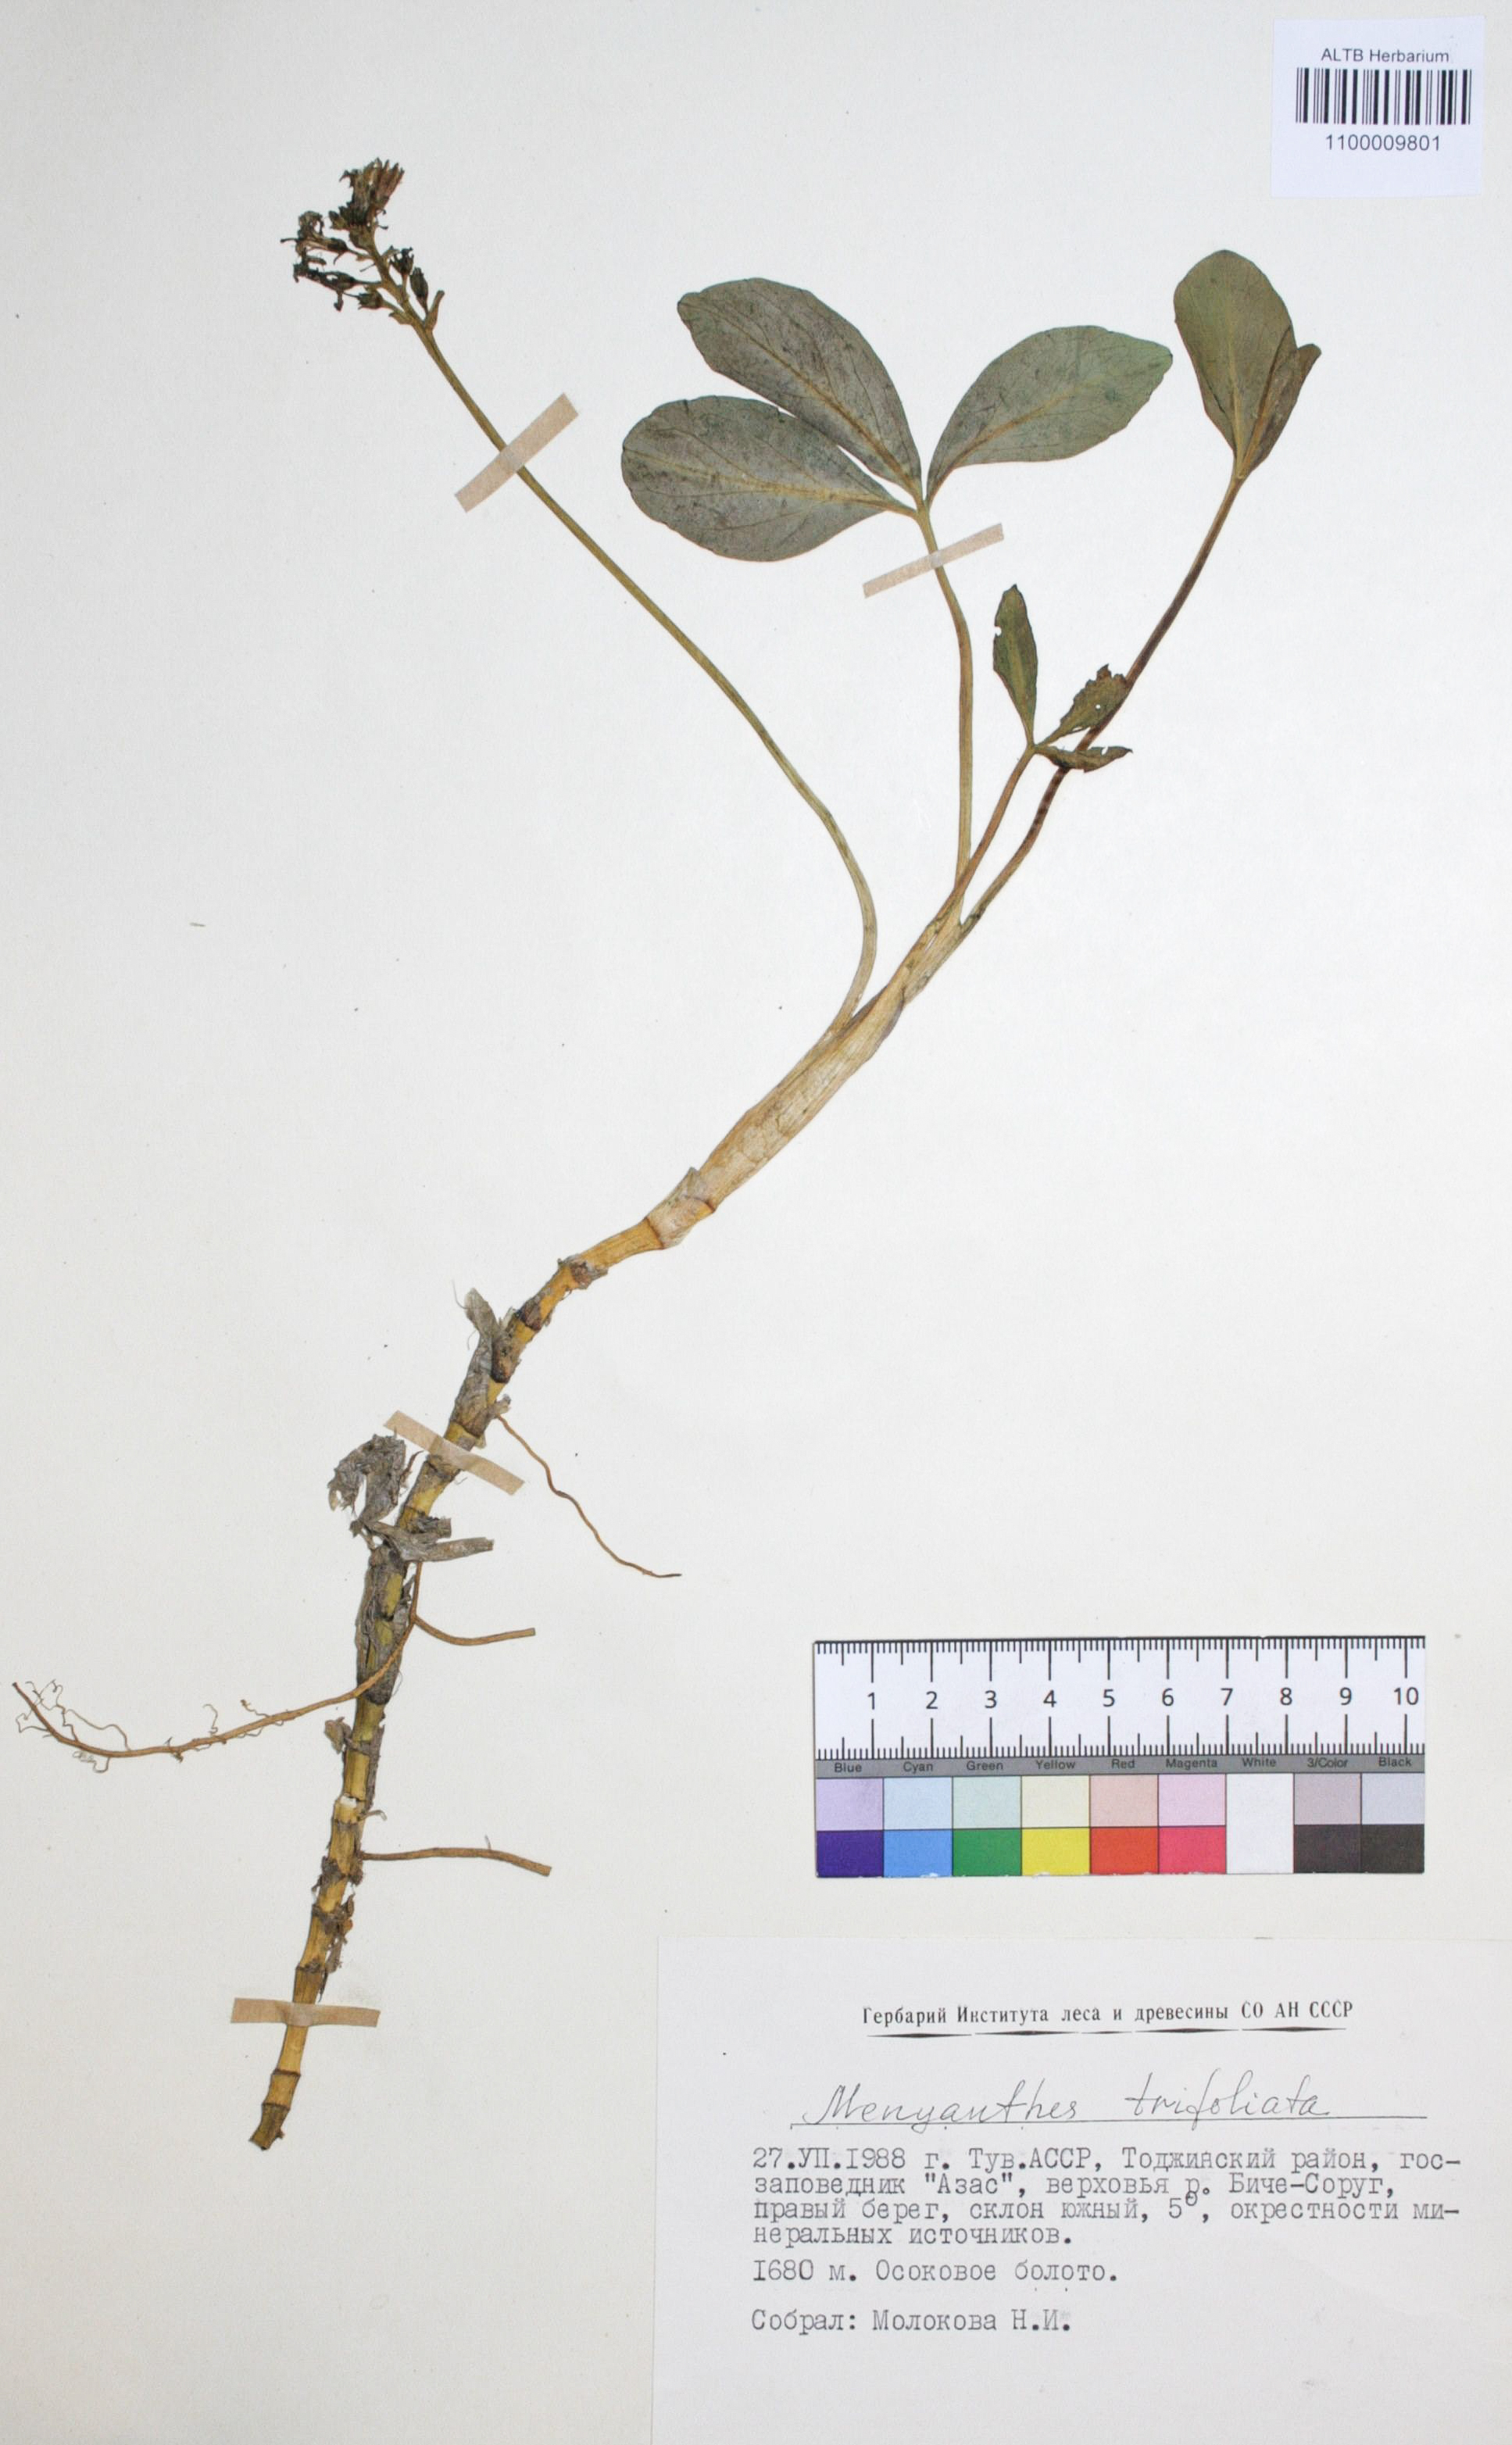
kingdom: Plantae
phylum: Tracheophyta
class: Magnoliopsida
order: Asterales
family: Menyanthaceae
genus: Menyanthes
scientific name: Menyanthes trifoliata
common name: Bogbean
